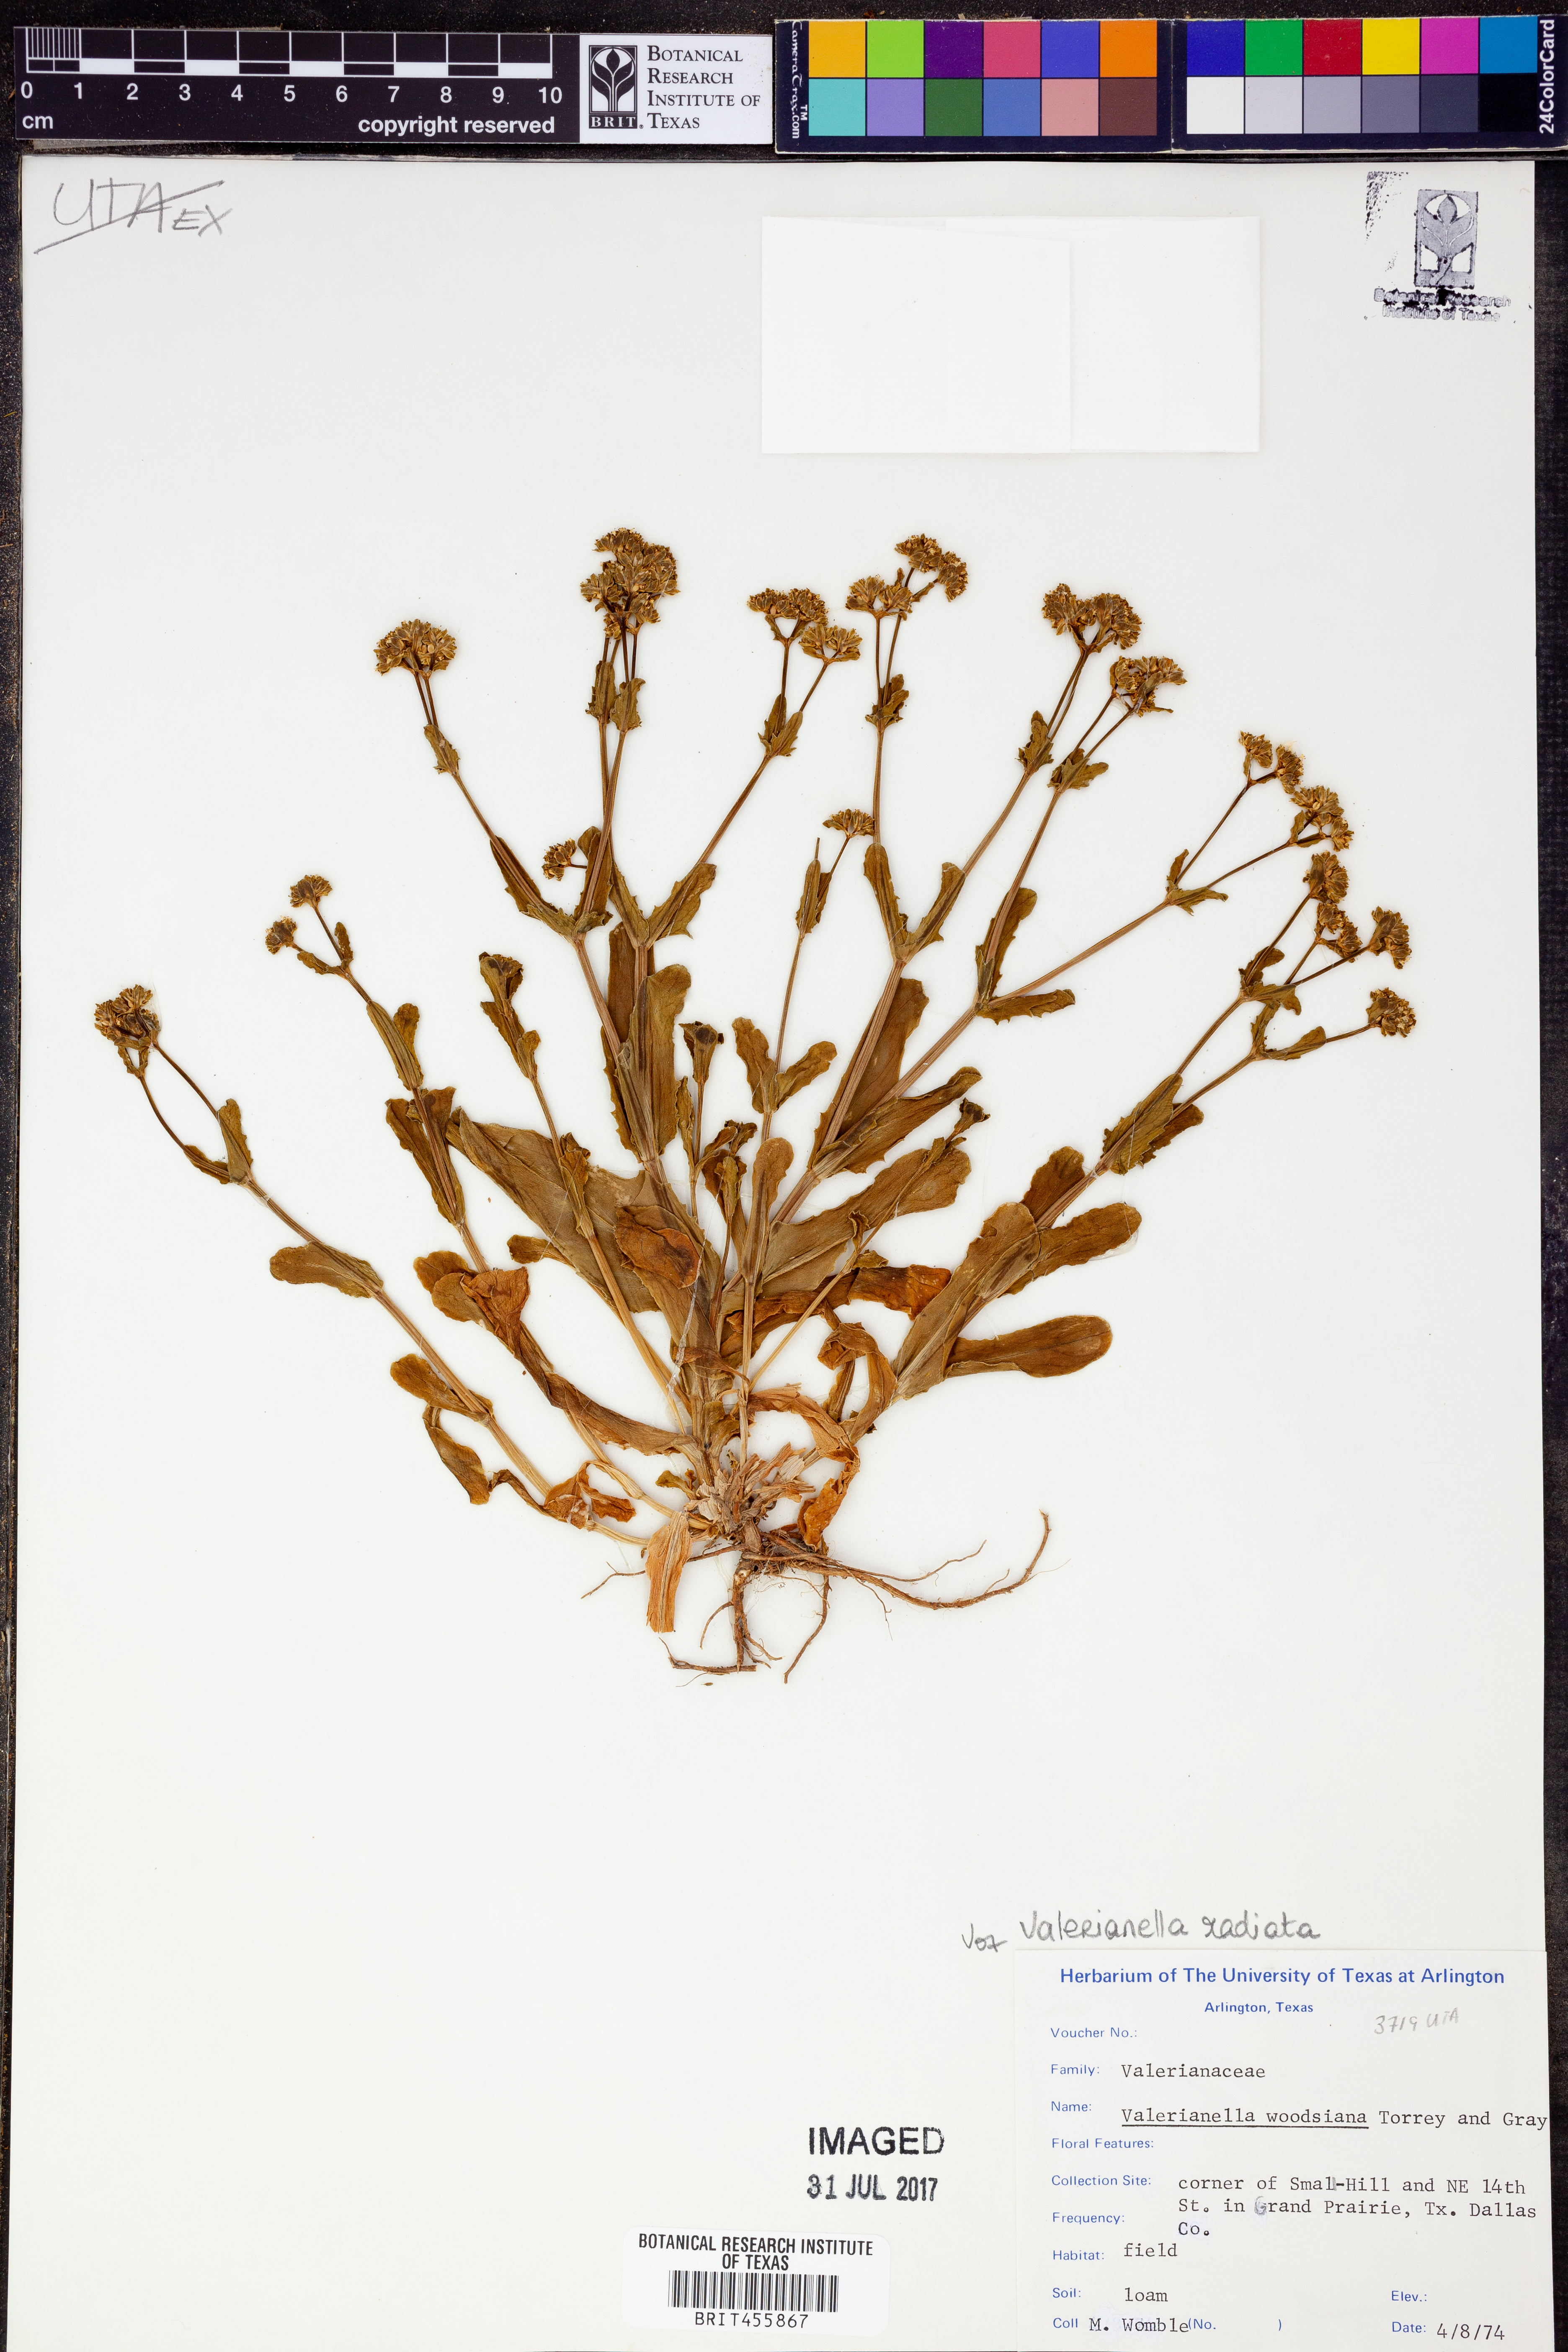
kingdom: Plantae
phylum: Tracheophyta
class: Magnoliopsida
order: Dipsacales
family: Caprifoliaceae
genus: Valerianella
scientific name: Valerianella radiata
